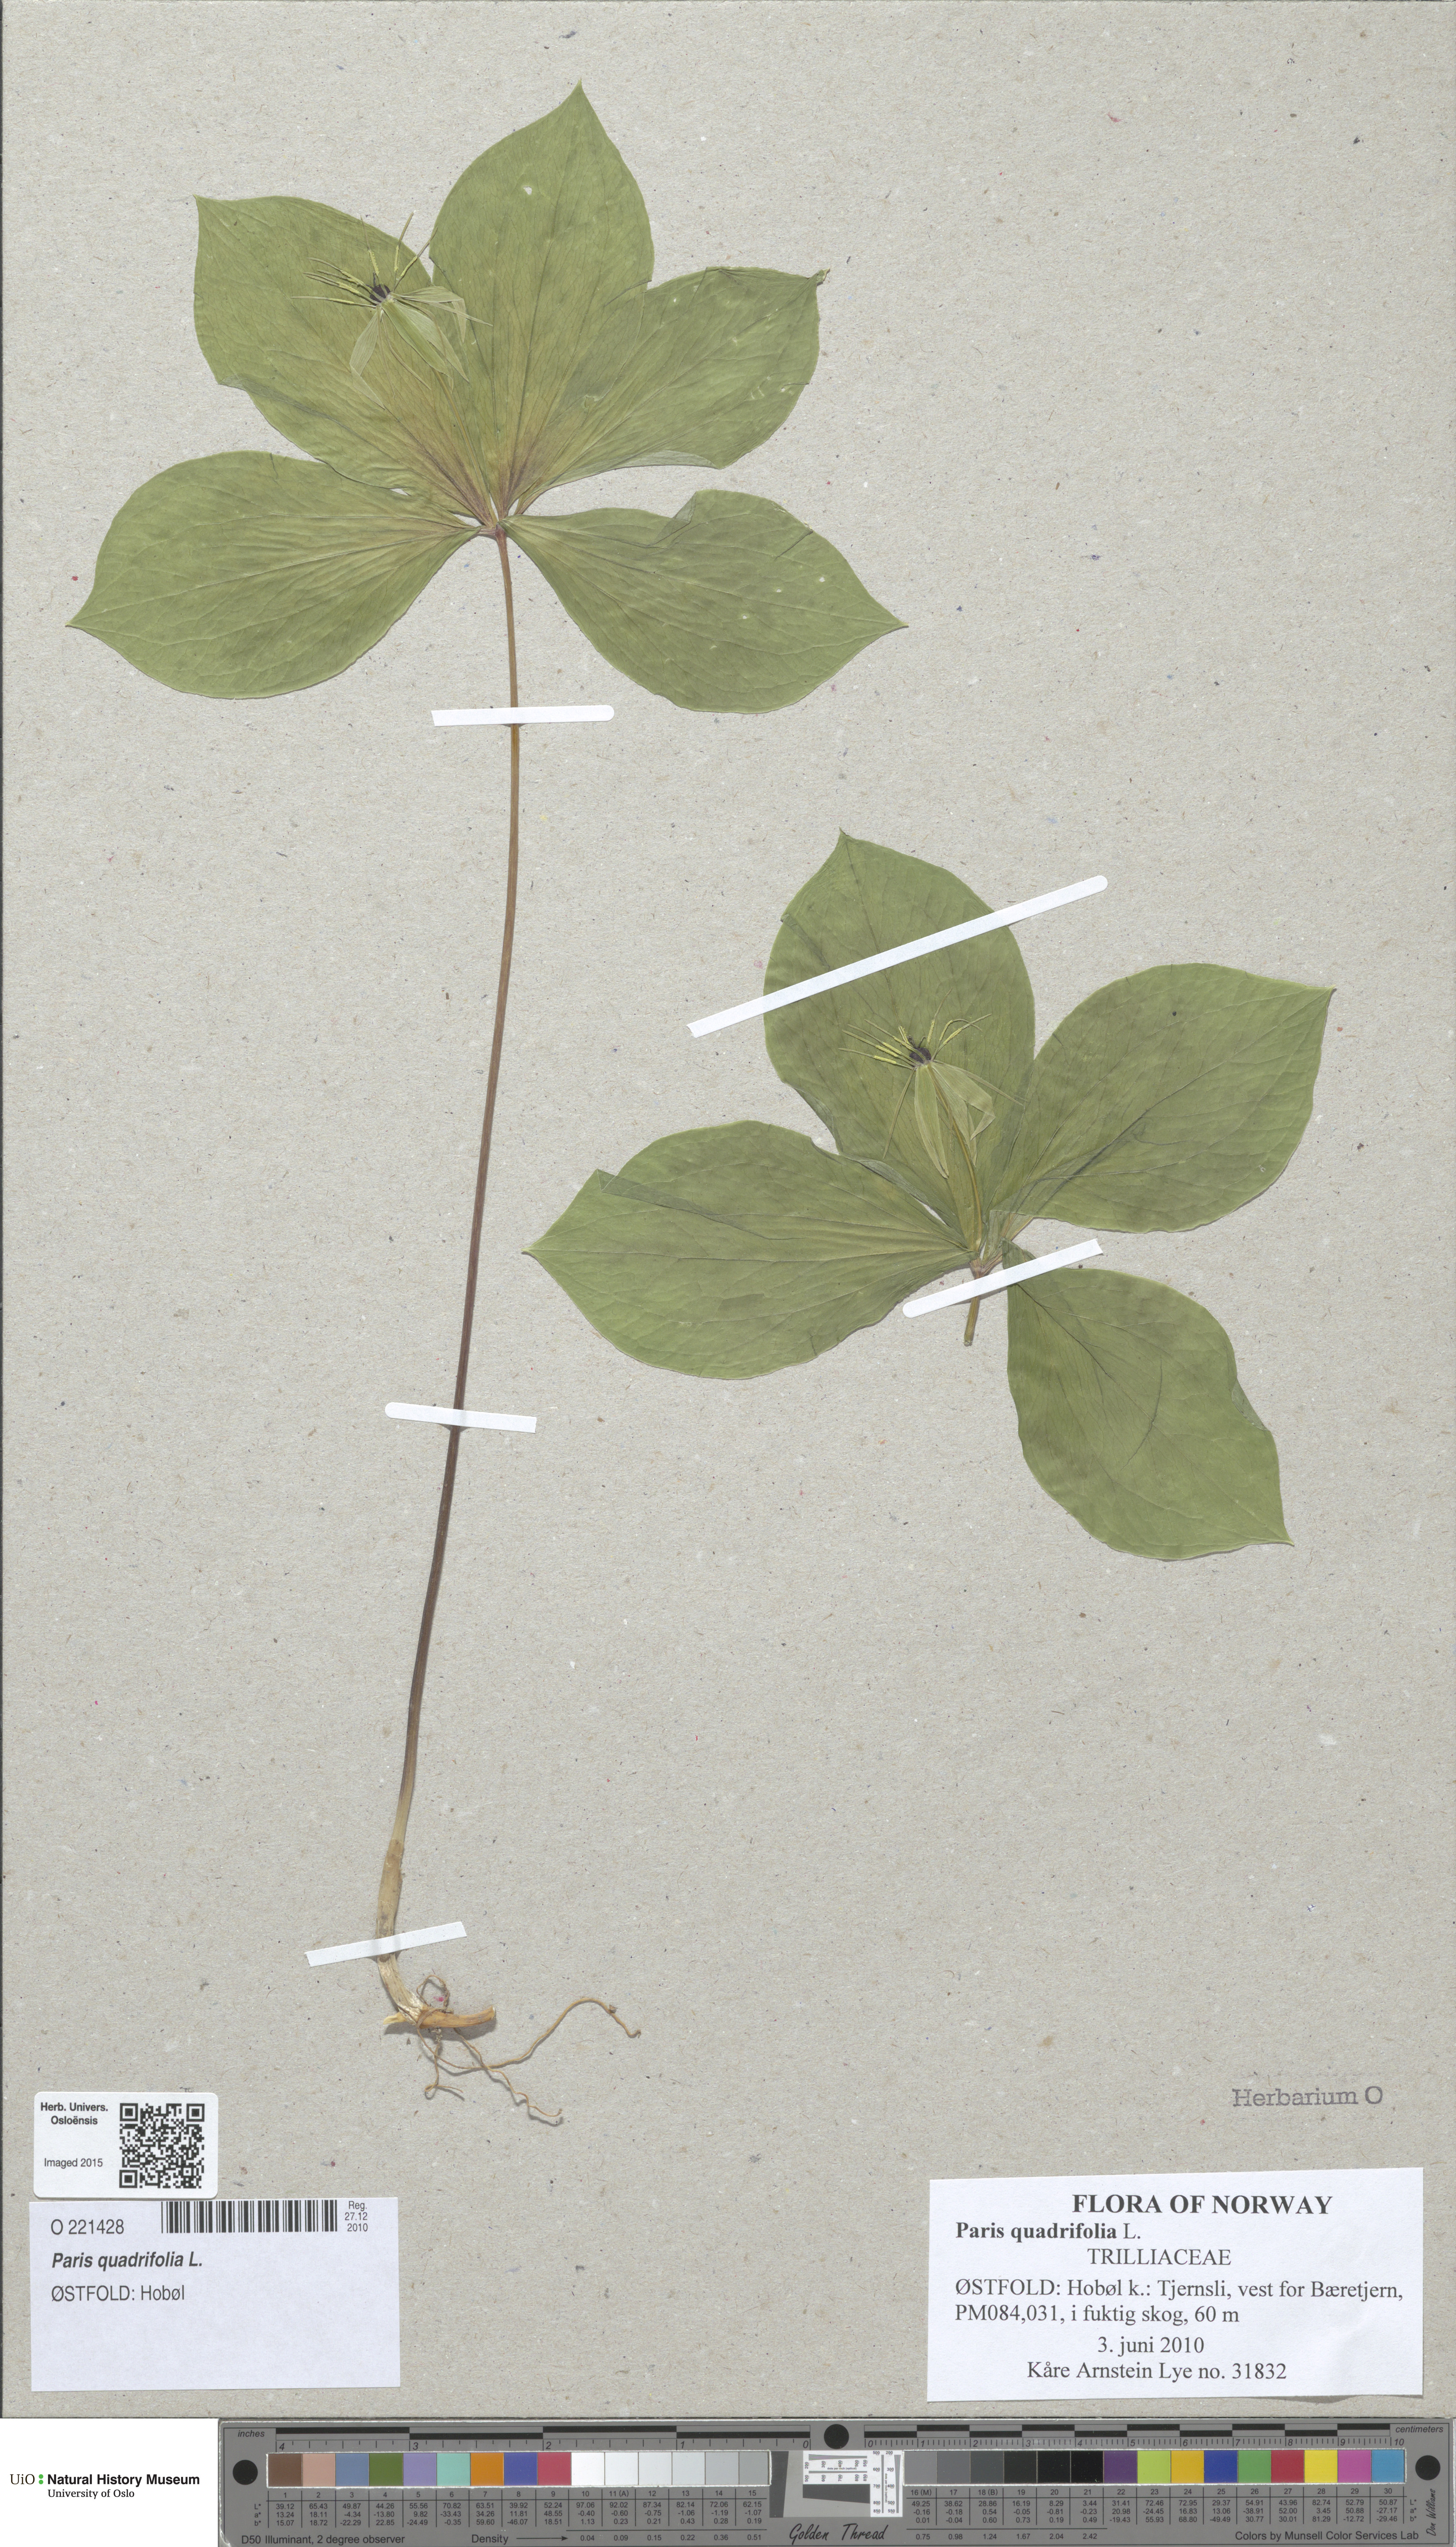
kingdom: Plantae
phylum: Tracheophyta
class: Liliopsida
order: Liliales
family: Melanthiaceae
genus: Paris
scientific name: Paris quadrifolia
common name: Herb-paris
